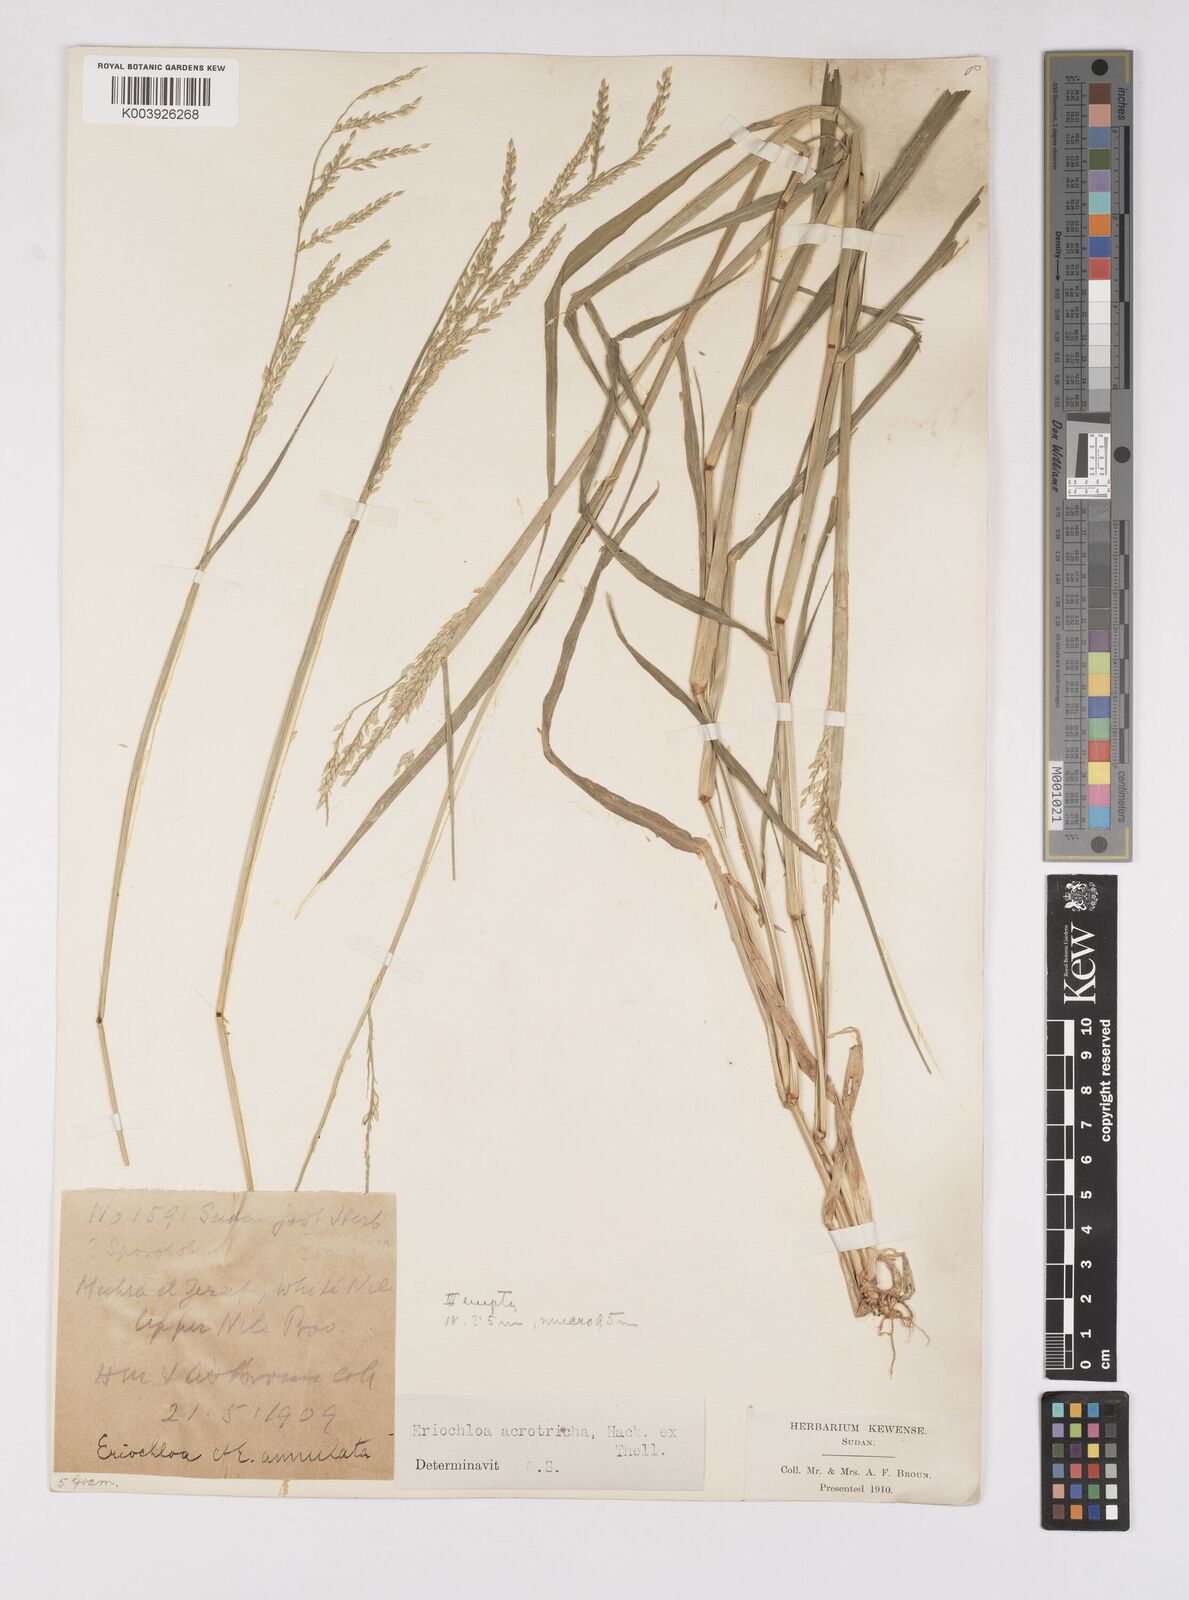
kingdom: Plantae
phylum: Tracheophyta
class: Liliopsida
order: Poales
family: Poaceae
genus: Eriochloa
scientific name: Eriochloa barbatus
